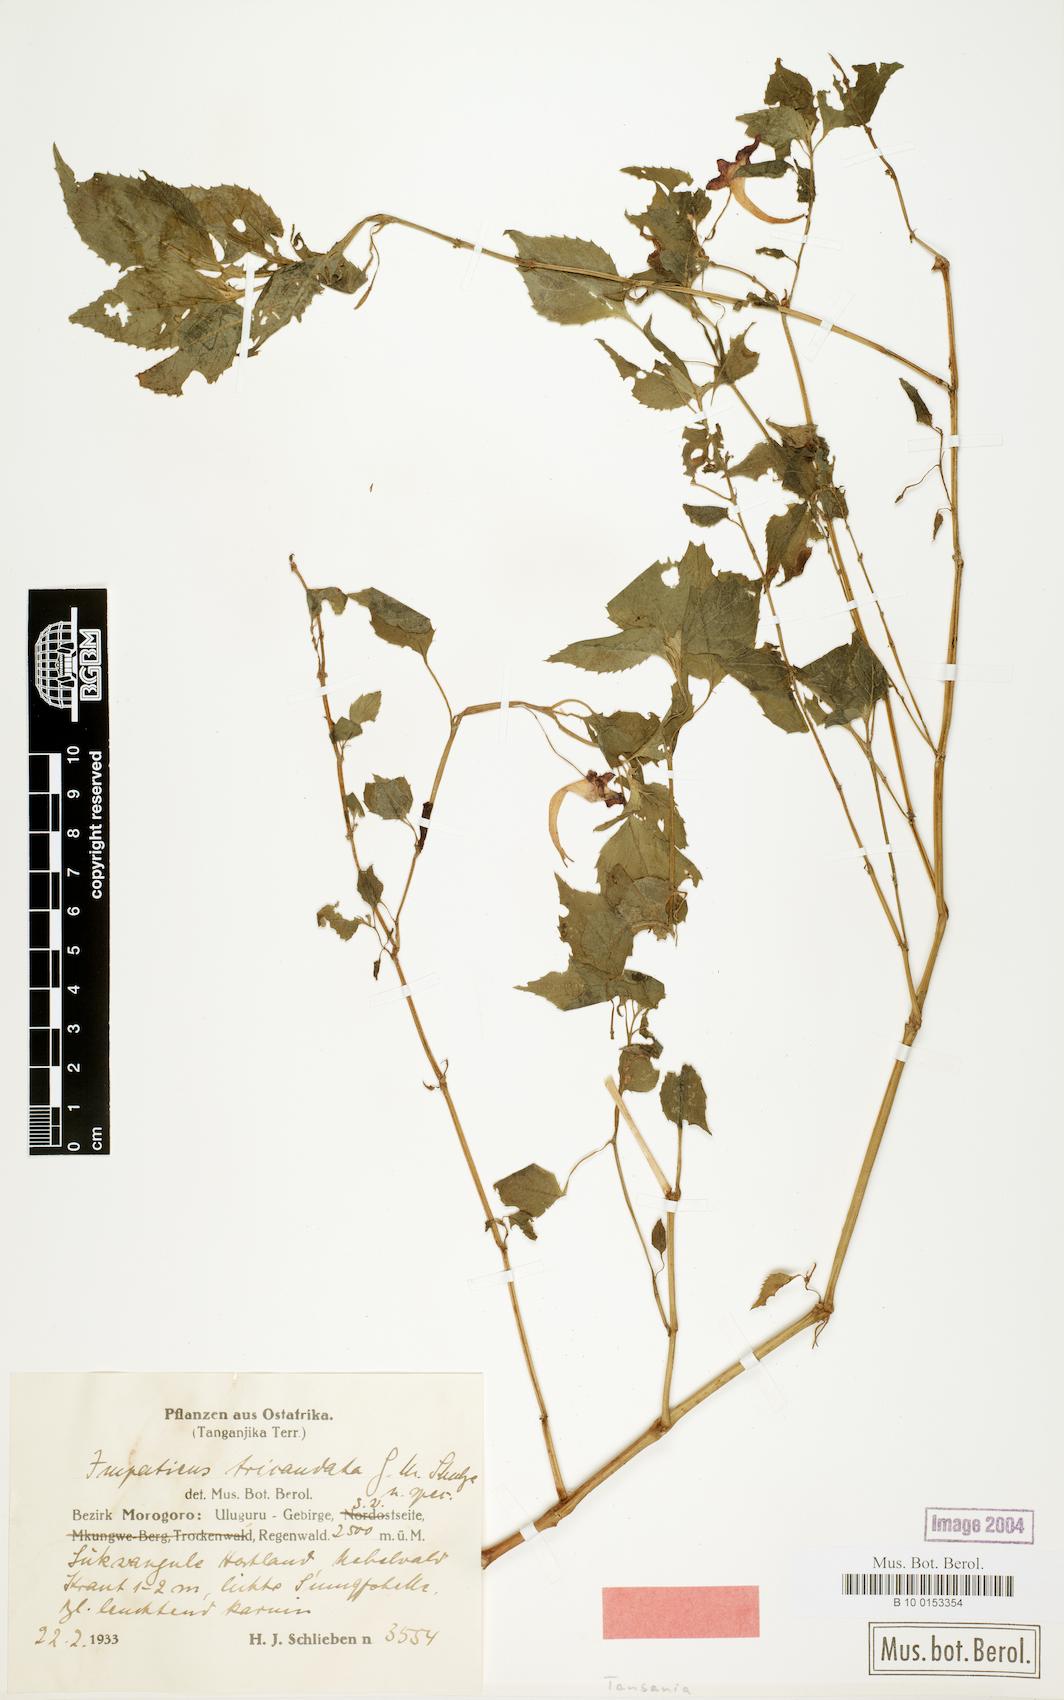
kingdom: Plantae
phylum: Tracheophyta
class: Magnoliopsida
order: Ericales
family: Balsaminaceae
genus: Impatiens
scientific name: Impatiens tricaudata
